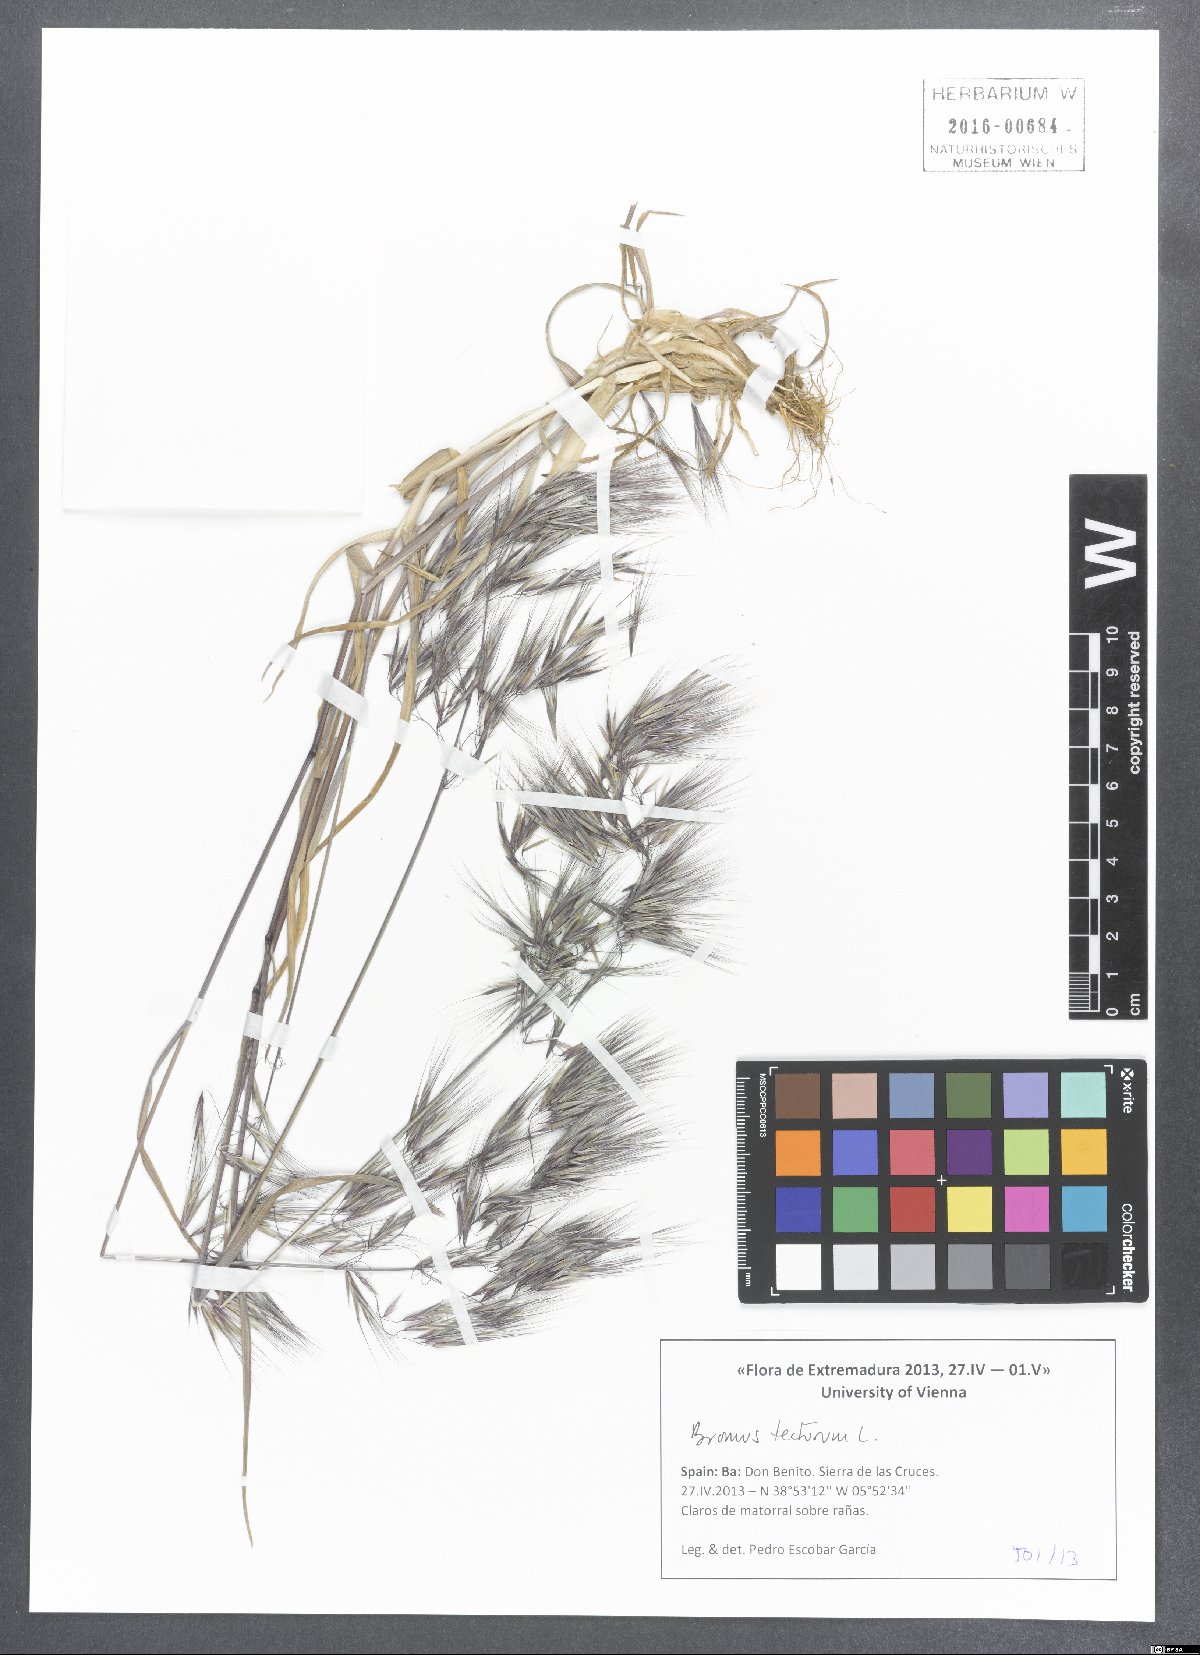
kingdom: Plantae
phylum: Tracheophyta
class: Liliopsida
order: Poales
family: Poaceae
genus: Bromus
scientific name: Bromus tectorum
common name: Cheatgrass
